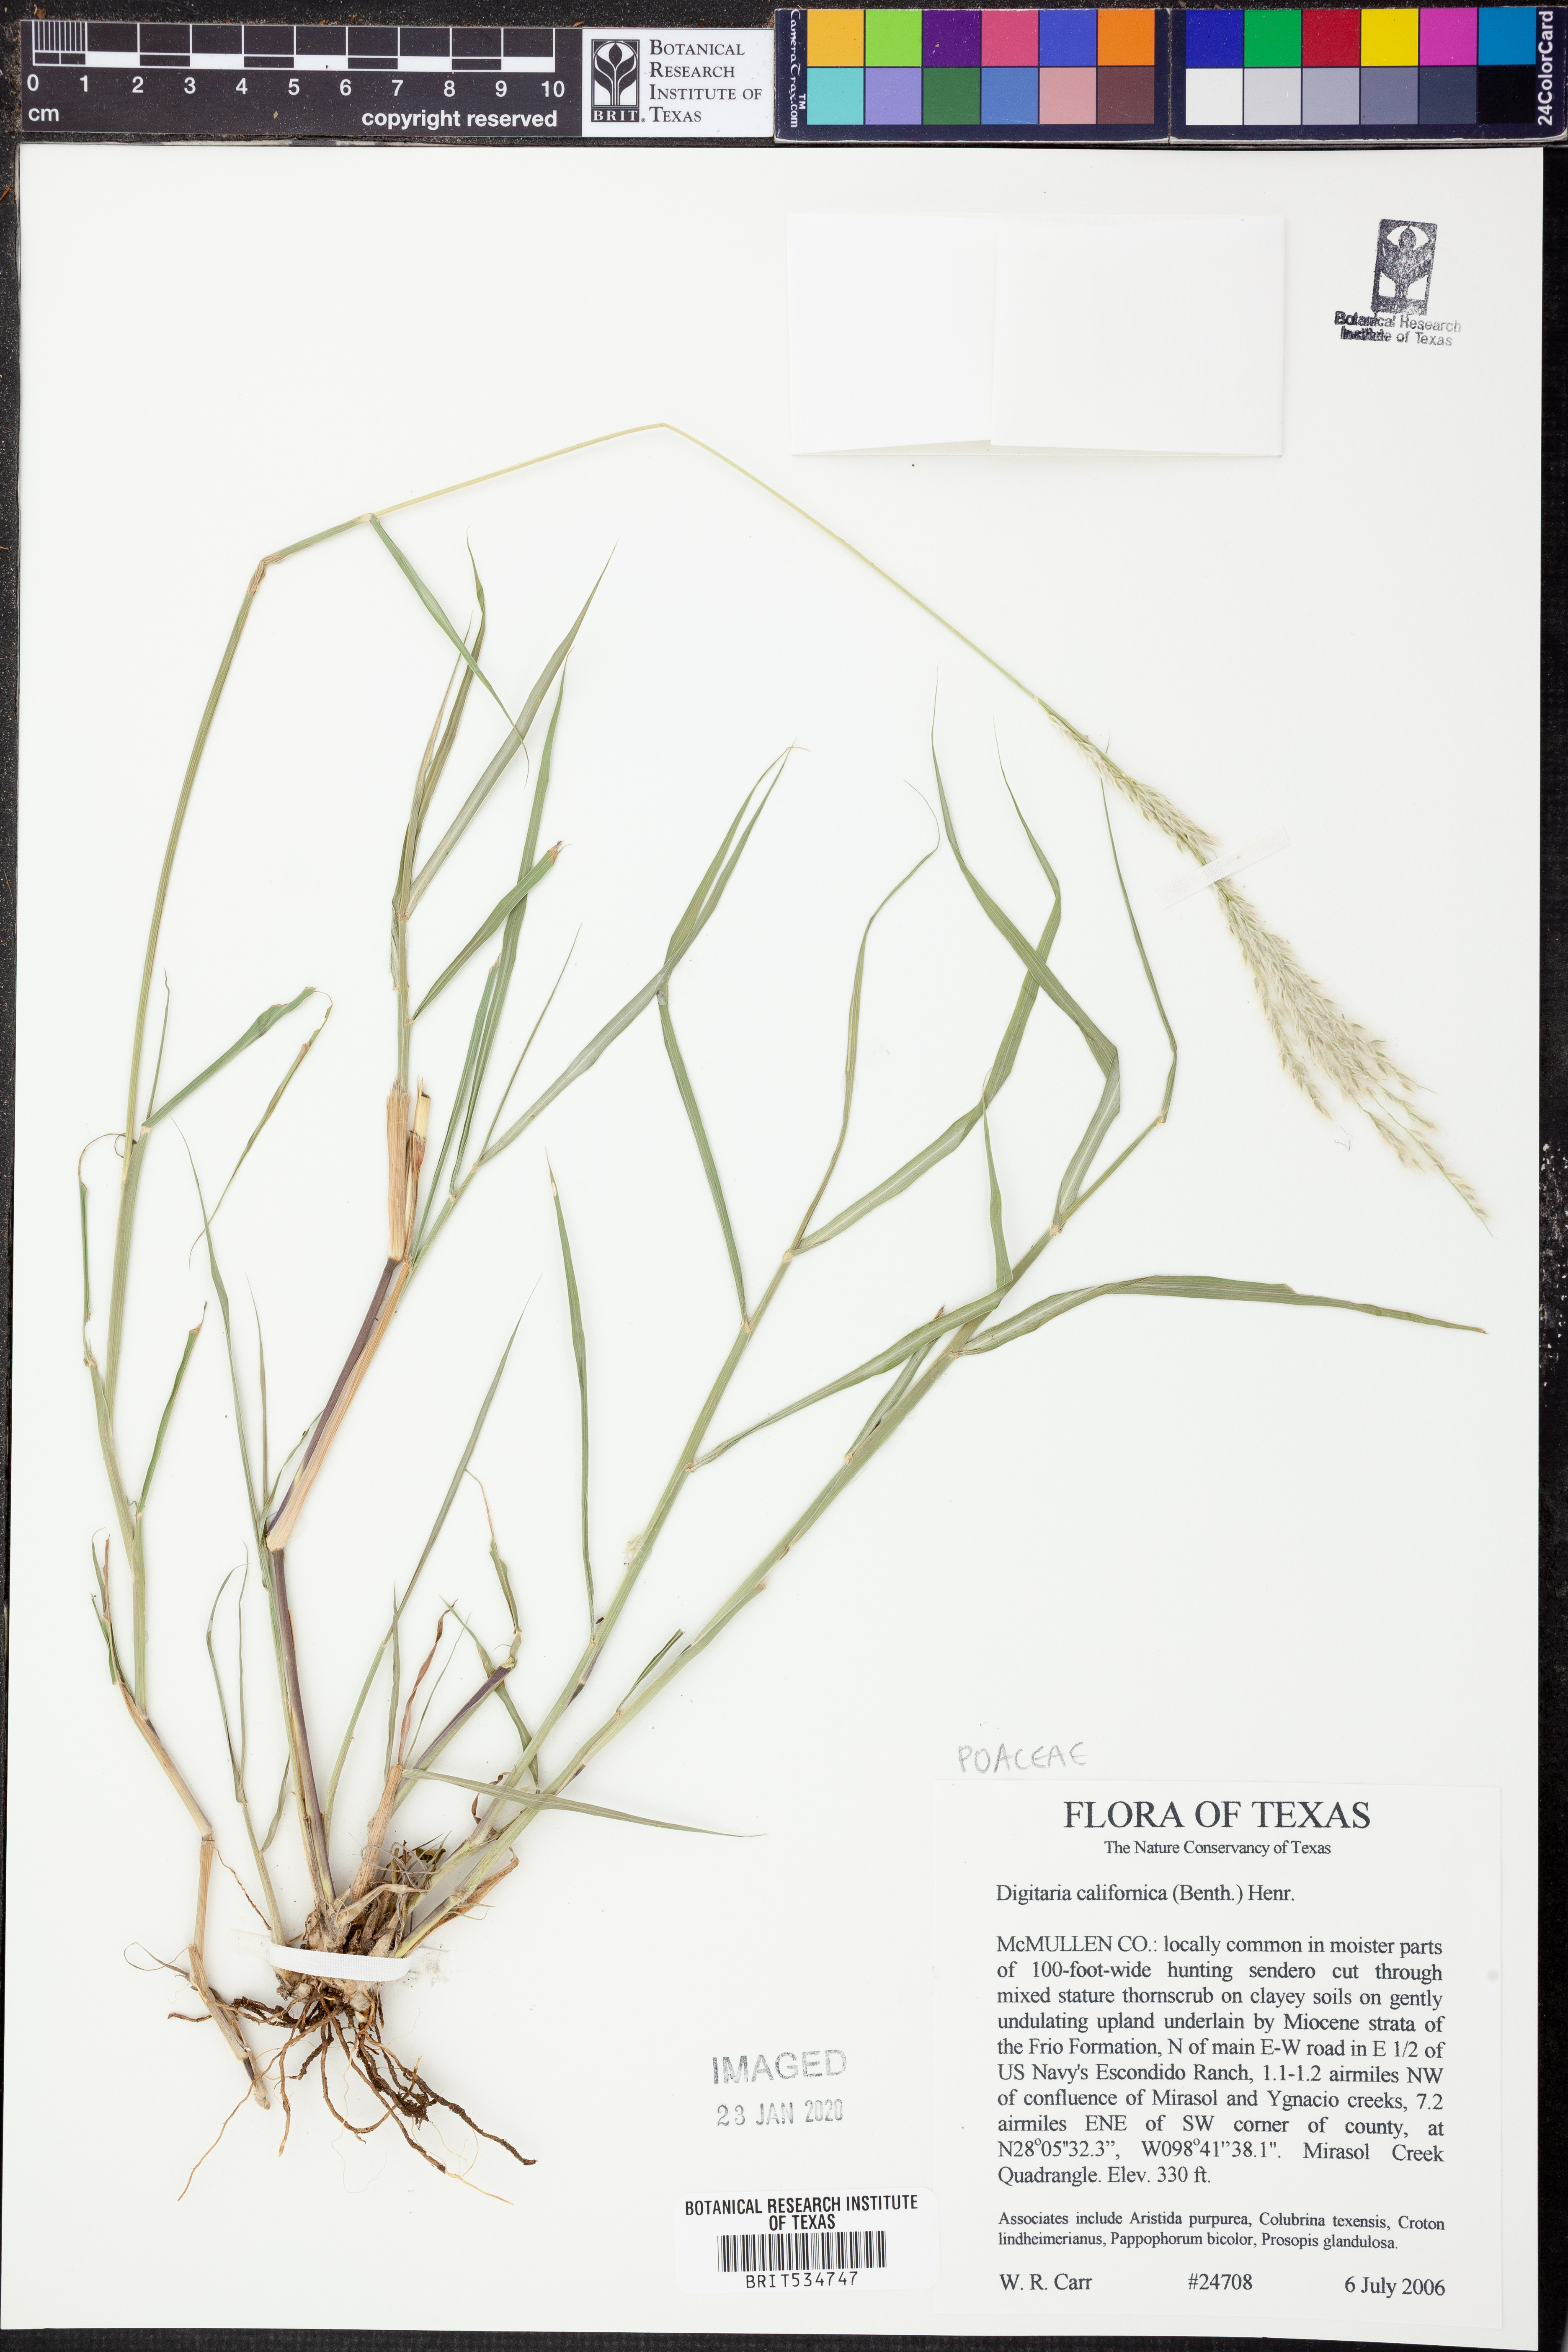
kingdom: Plantae
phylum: Tracheophyta
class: Liliopsida
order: Poales
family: Poaceae
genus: Digitaria
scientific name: Digitaria californica
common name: Arizona cottontop
